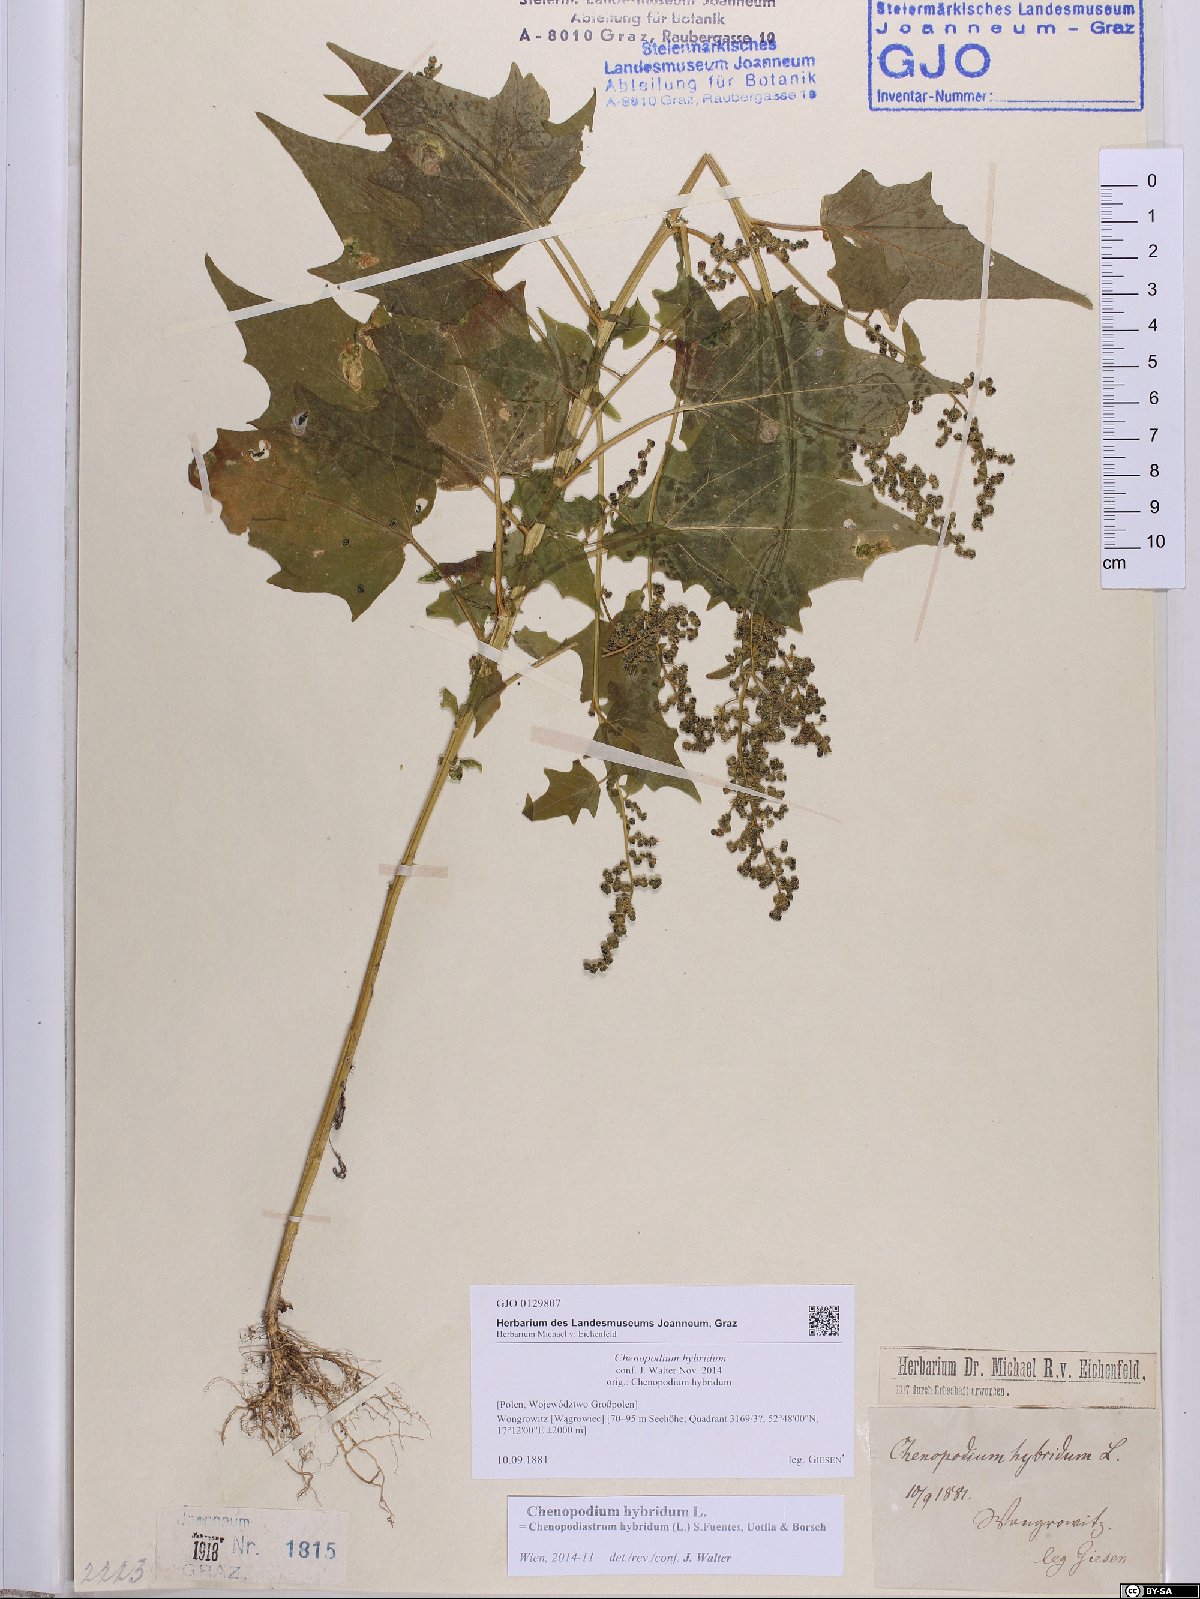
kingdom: Plantae
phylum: Tracheophyta
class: Magnoliopsida
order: Caryophyllales
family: Amaranthaceae
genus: Chenopodiastrum
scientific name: Chenopodiastrum hybridum
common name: Mapleleaf goosefoot
